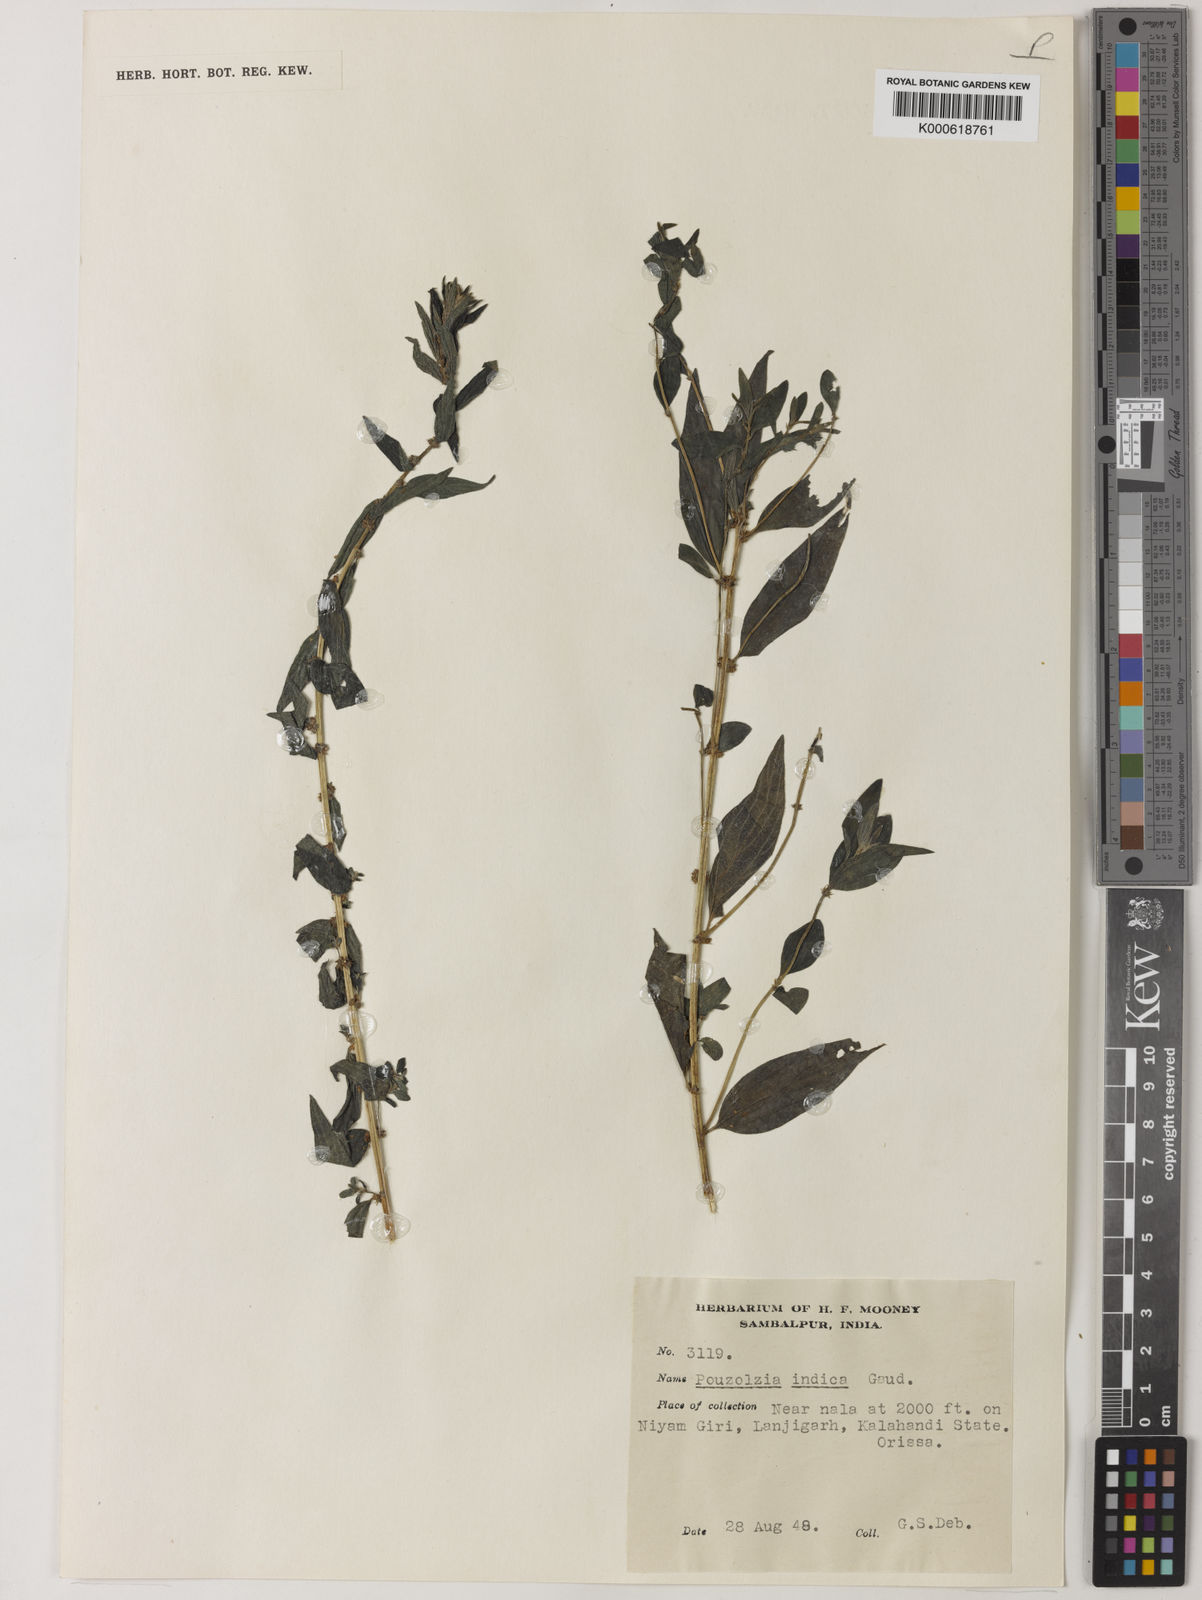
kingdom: Plantae
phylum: Tracheophyta
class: Magnoliopsida
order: Rosales
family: Urticaceae
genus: Pouzolzia
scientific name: Pouzolzia zeylanica
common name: Graceful pouzolzsbush
